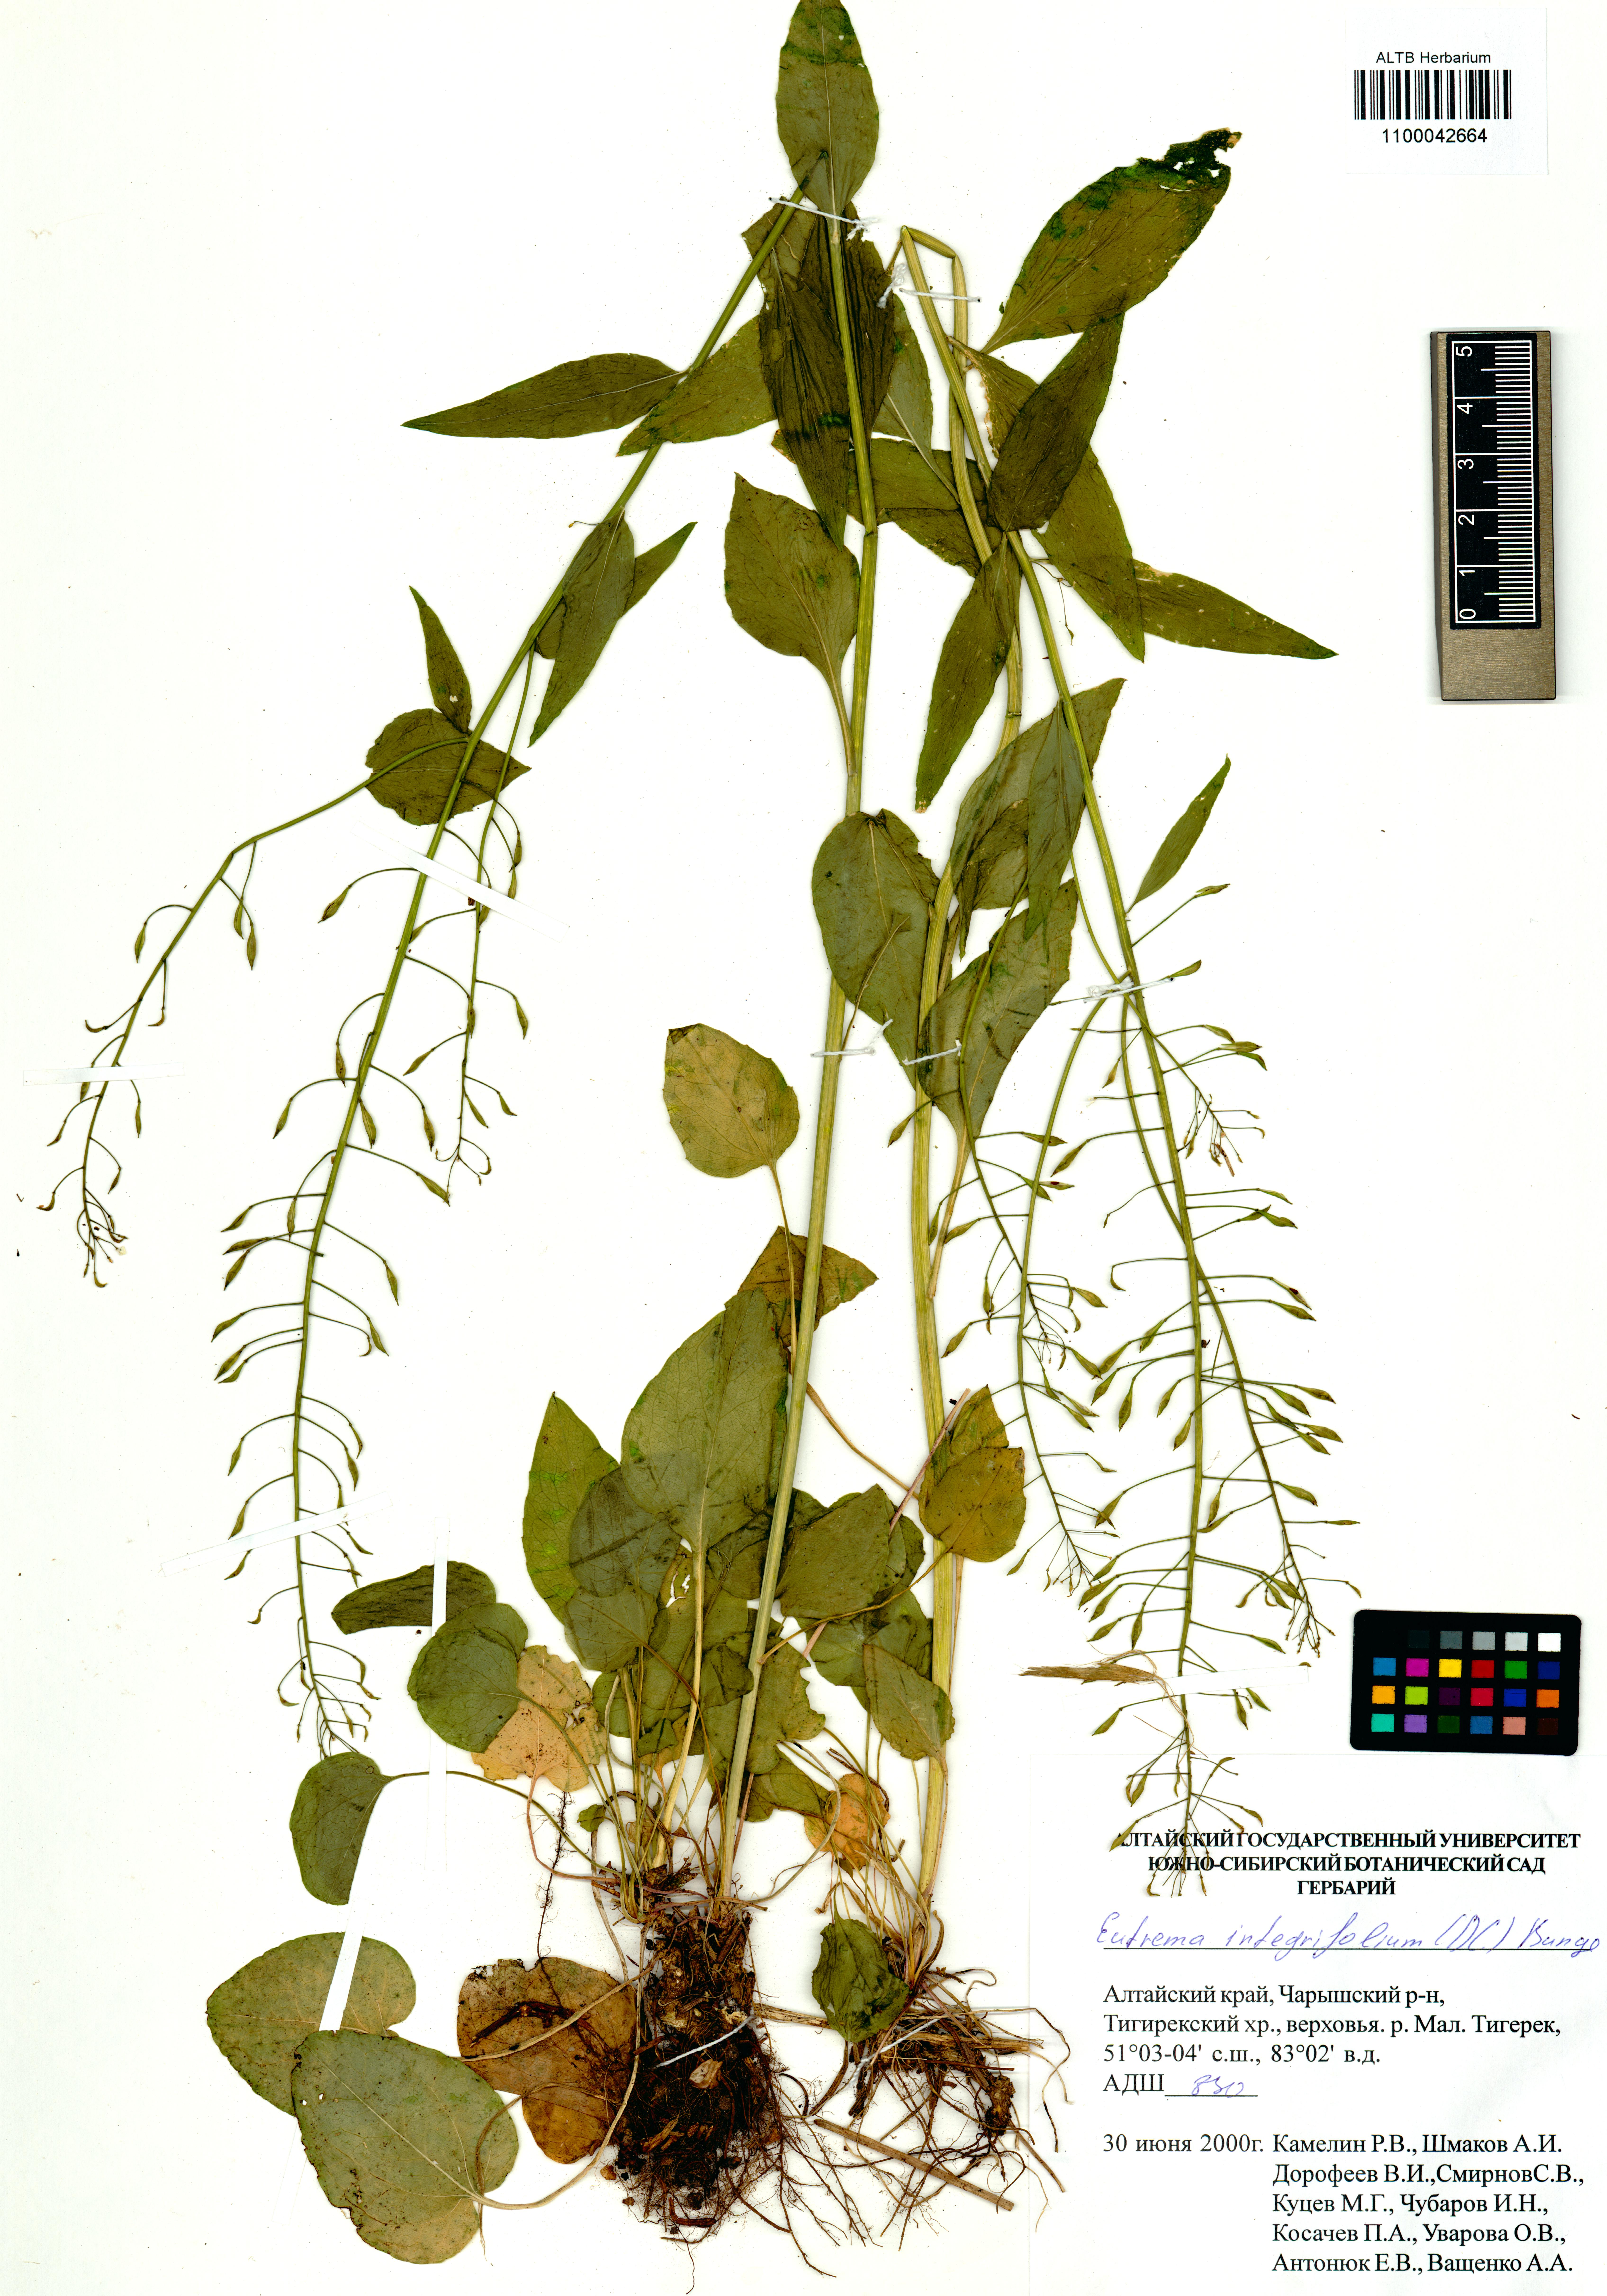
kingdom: Plantae
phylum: Tracheophyta
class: Magnoliopsida
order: Brassicales
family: Brassicaceae
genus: Eutrema
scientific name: Eutrema integrifolium
